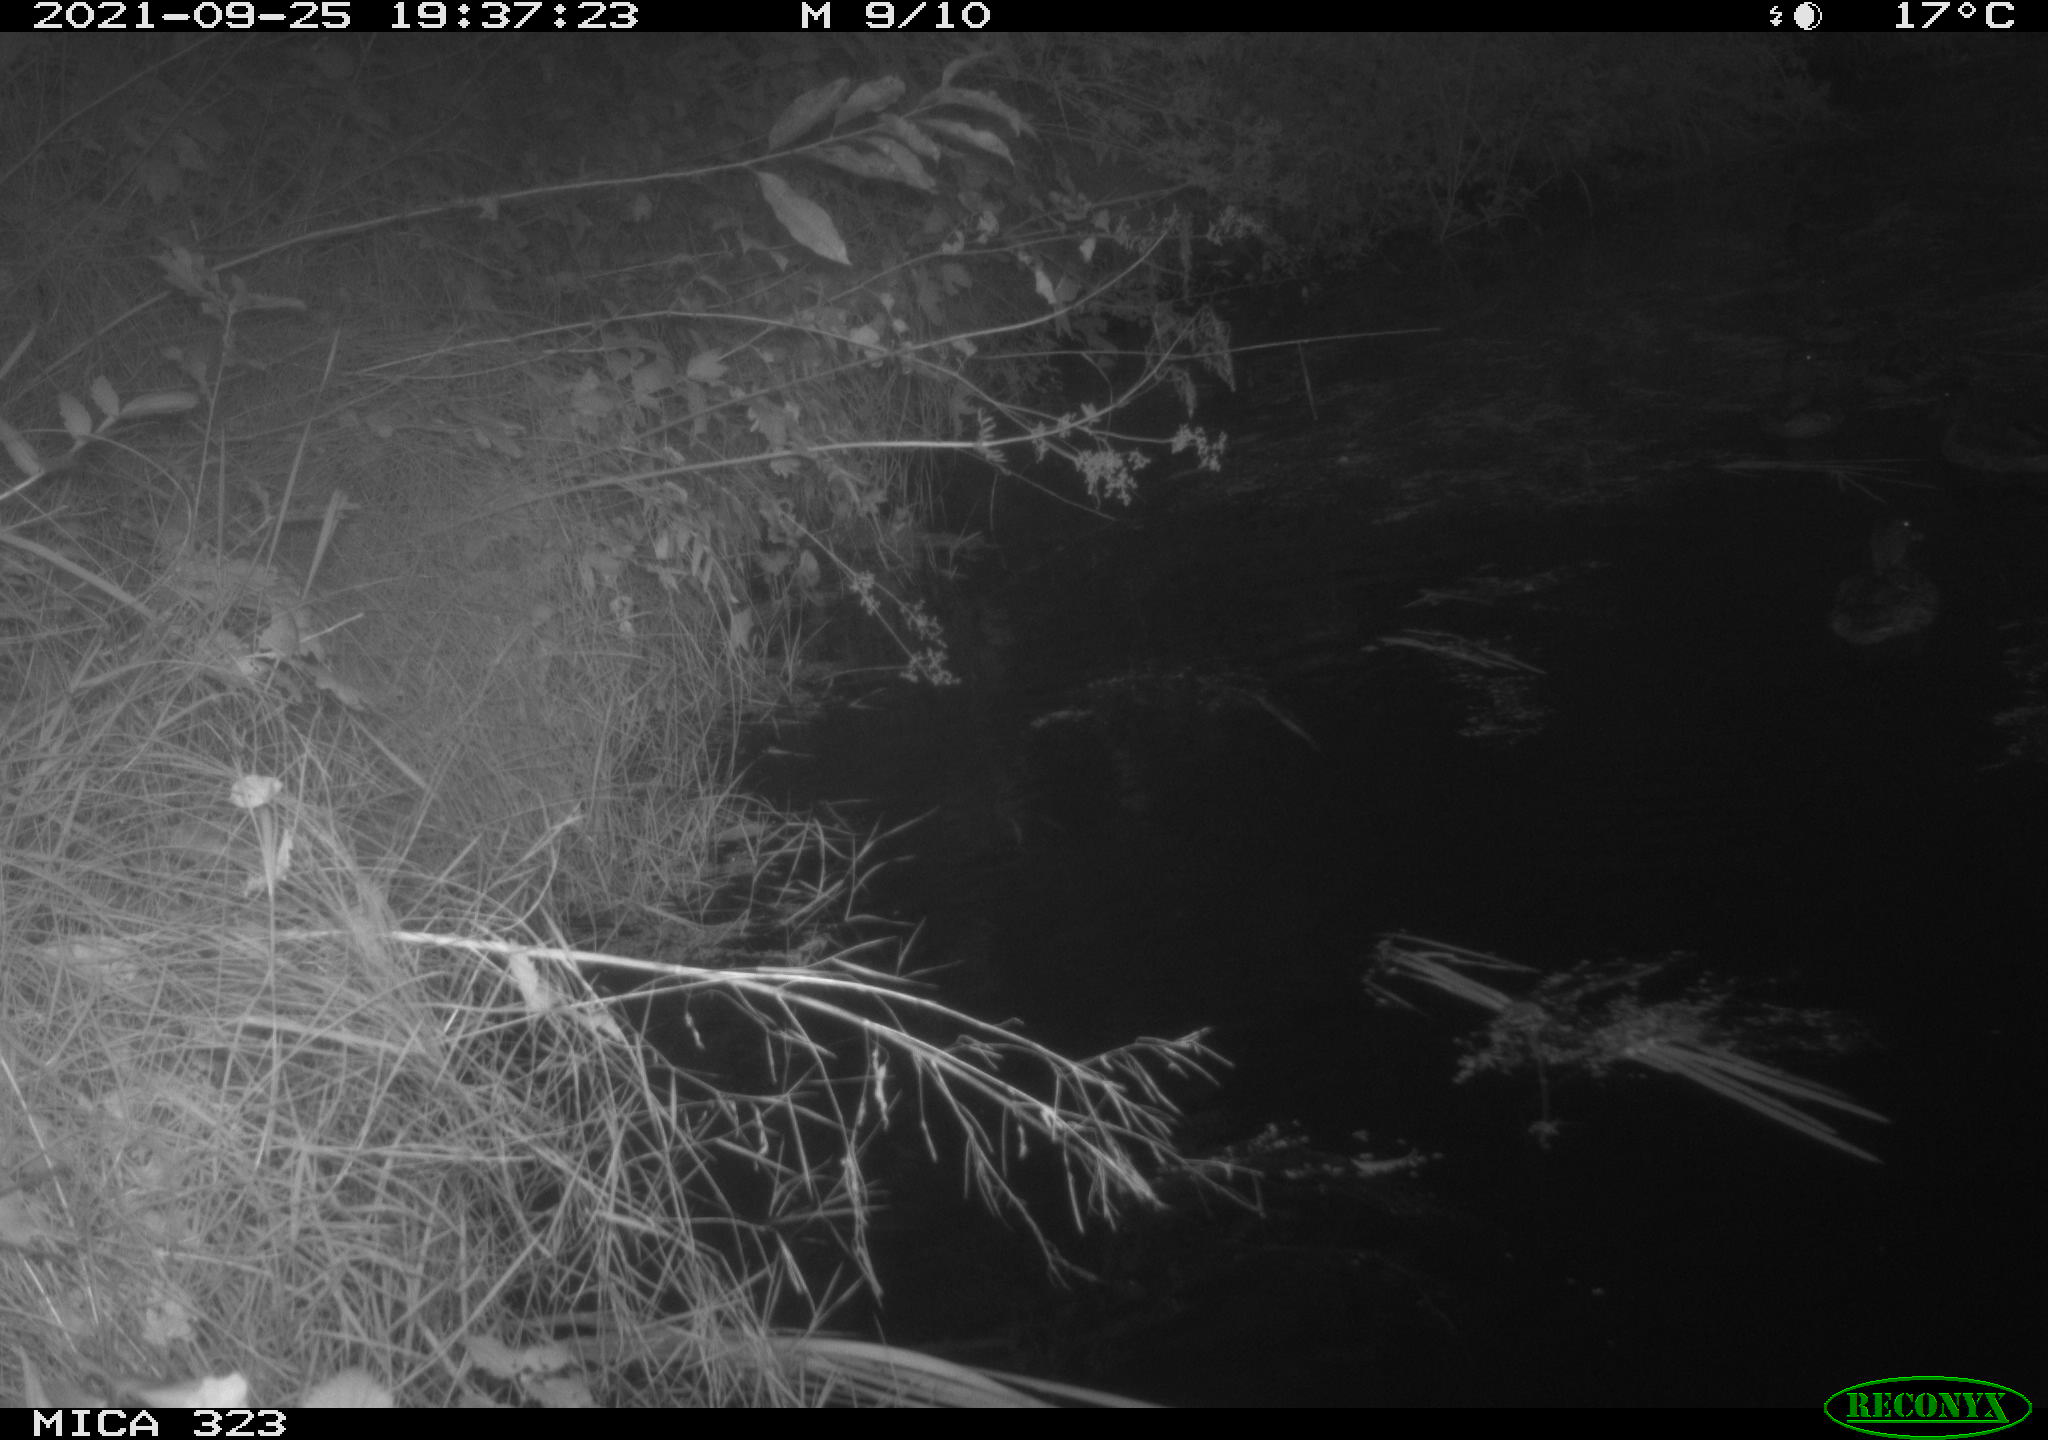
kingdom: Animalia
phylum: Chordata
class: Aves
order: Anseriformes
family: Anatidae
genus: Anas
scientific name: Anas platyrhynchos
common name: Mallard
